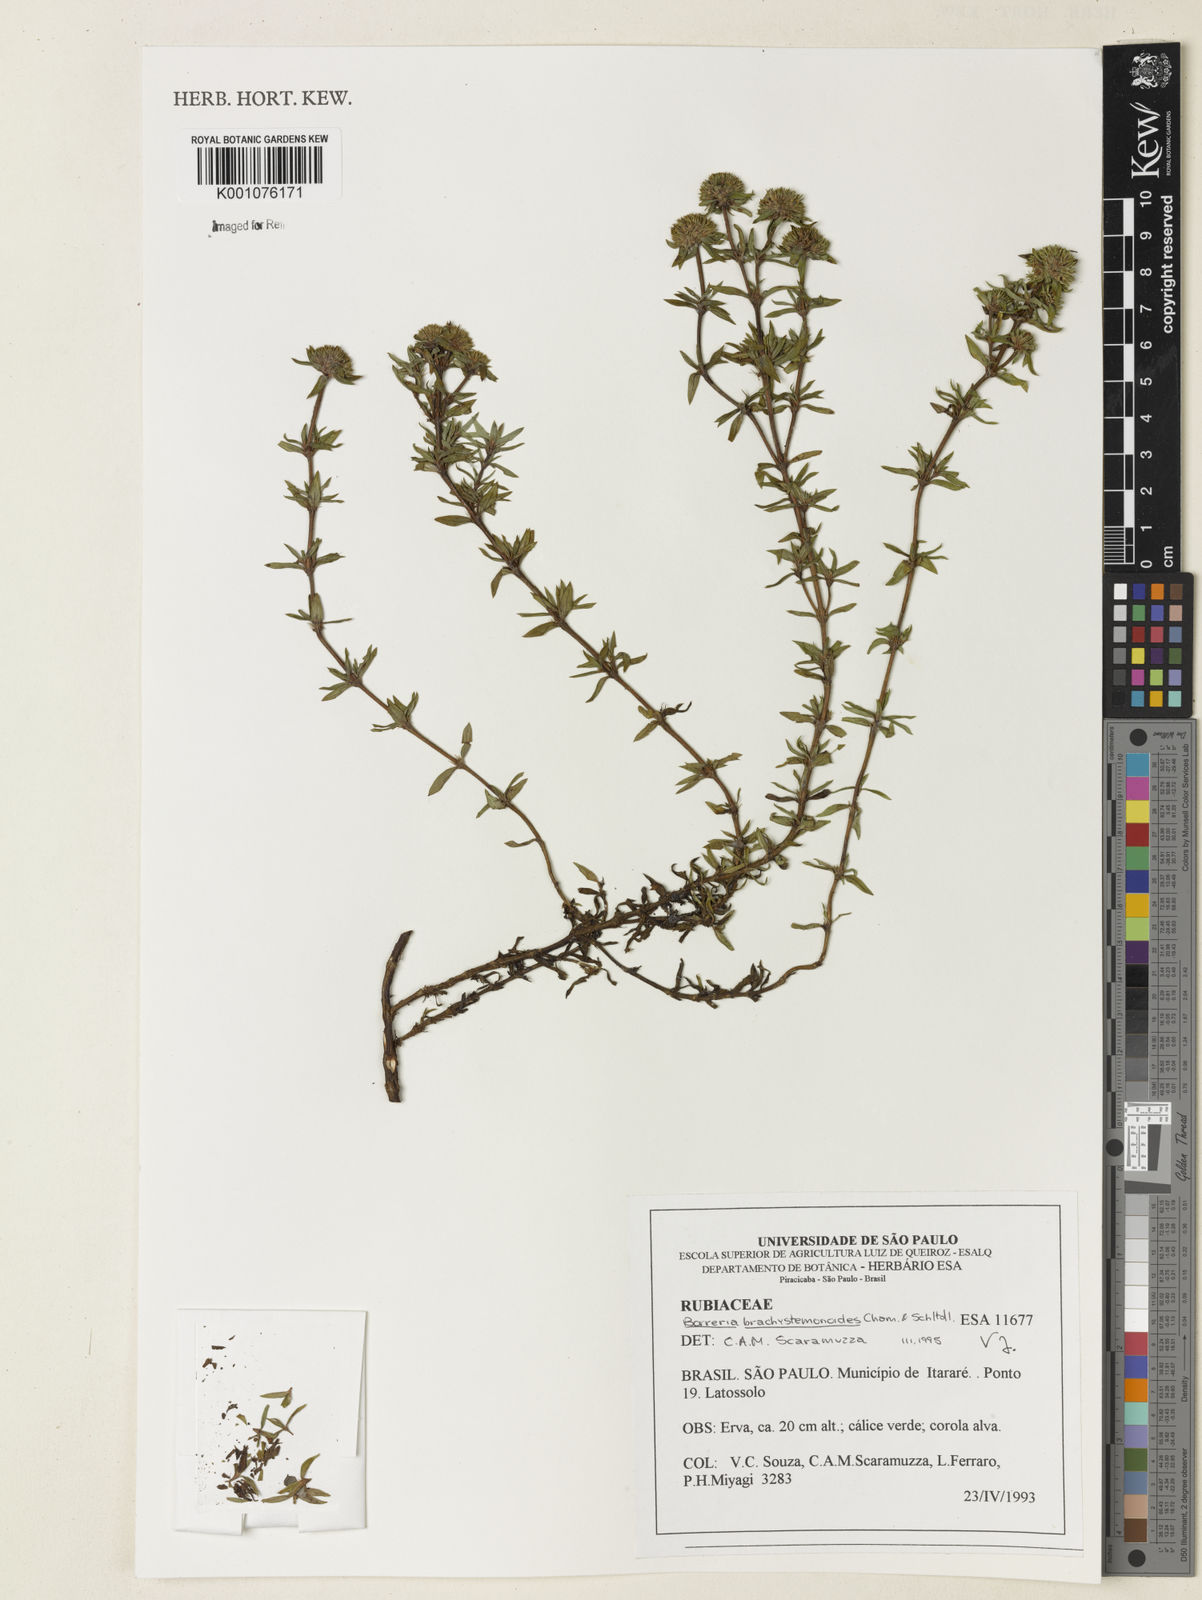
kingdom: Plantae
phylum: Tracheophyta
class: Magnoliopsida
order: Gentianales
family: Rubiaceae
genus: Spermacoce
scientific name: Spermacoce brachystemonoides
